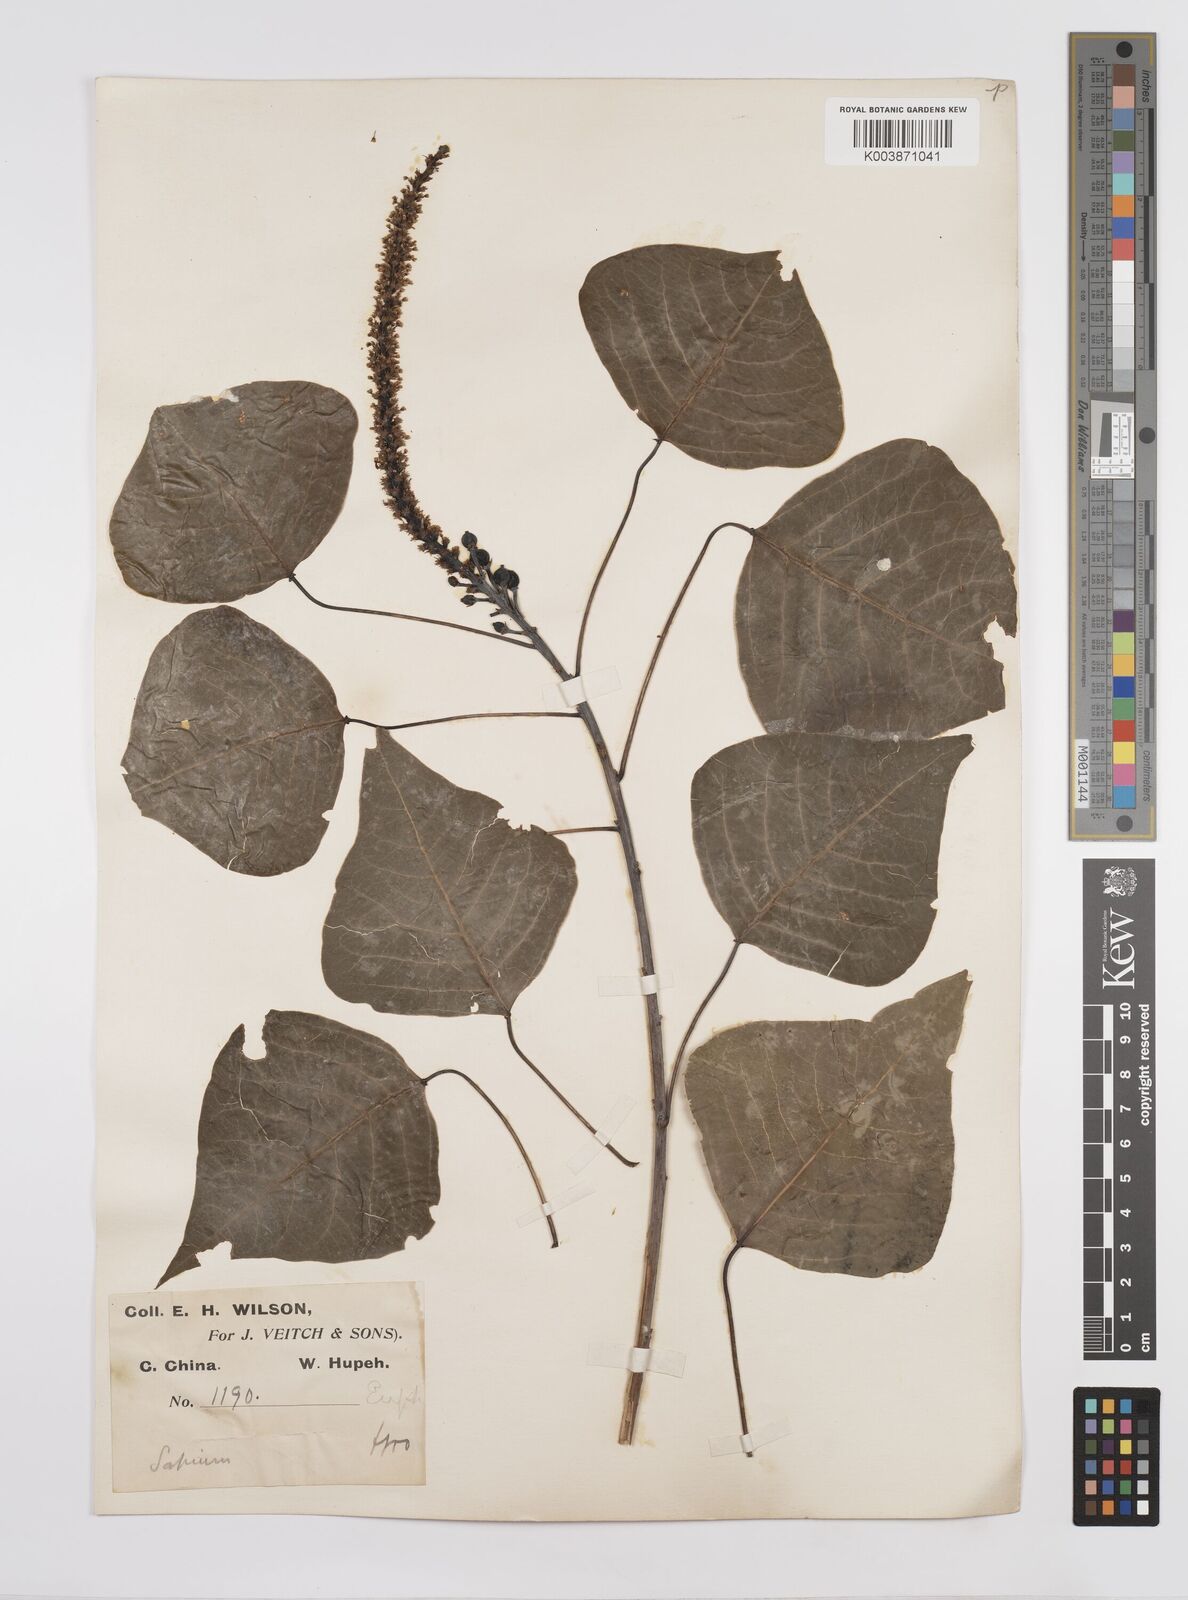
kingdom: Plantae
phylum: Tracheophyta
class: Magnoliopsida
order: Malpighiales
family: Euphorbiaceae
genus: Triadica
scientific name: Triadica sebifera
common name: Chinese tallow
